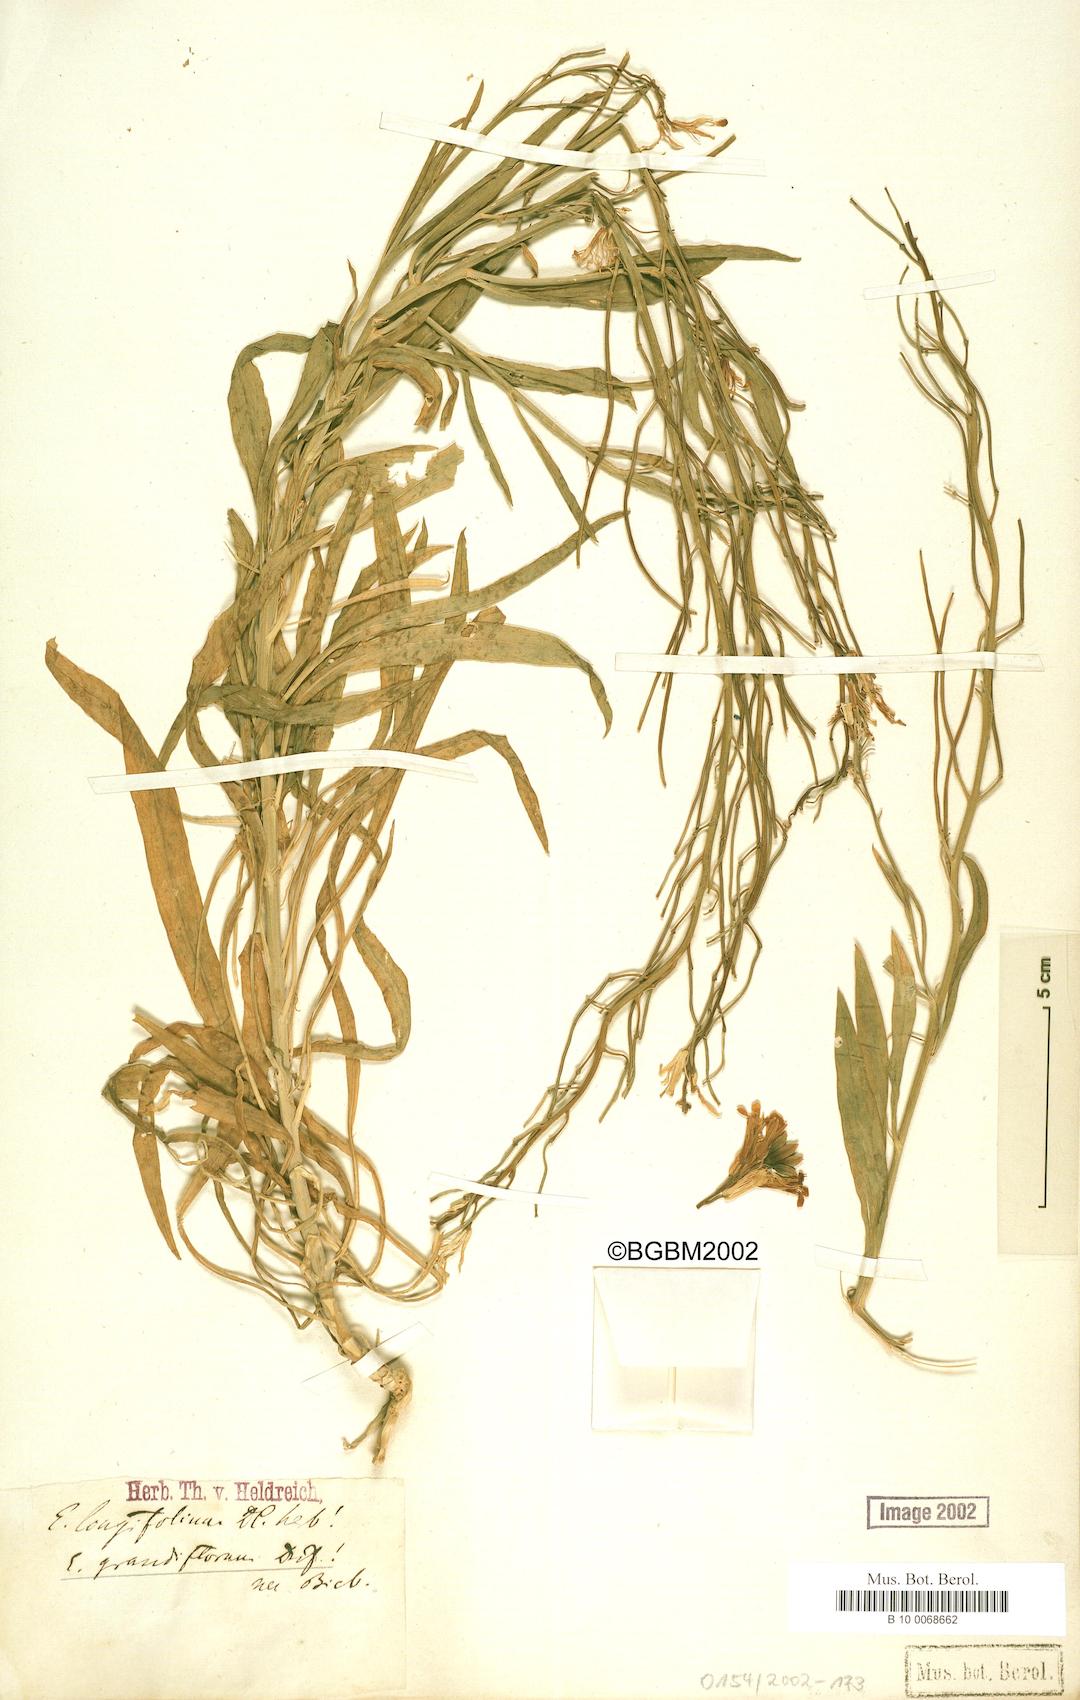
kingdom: Plantae
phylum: Tracheophyta
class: Magnoliopsida
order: Brassicales
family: Brassicaceae
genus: Erysimum
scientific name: Erysimum duriaei
